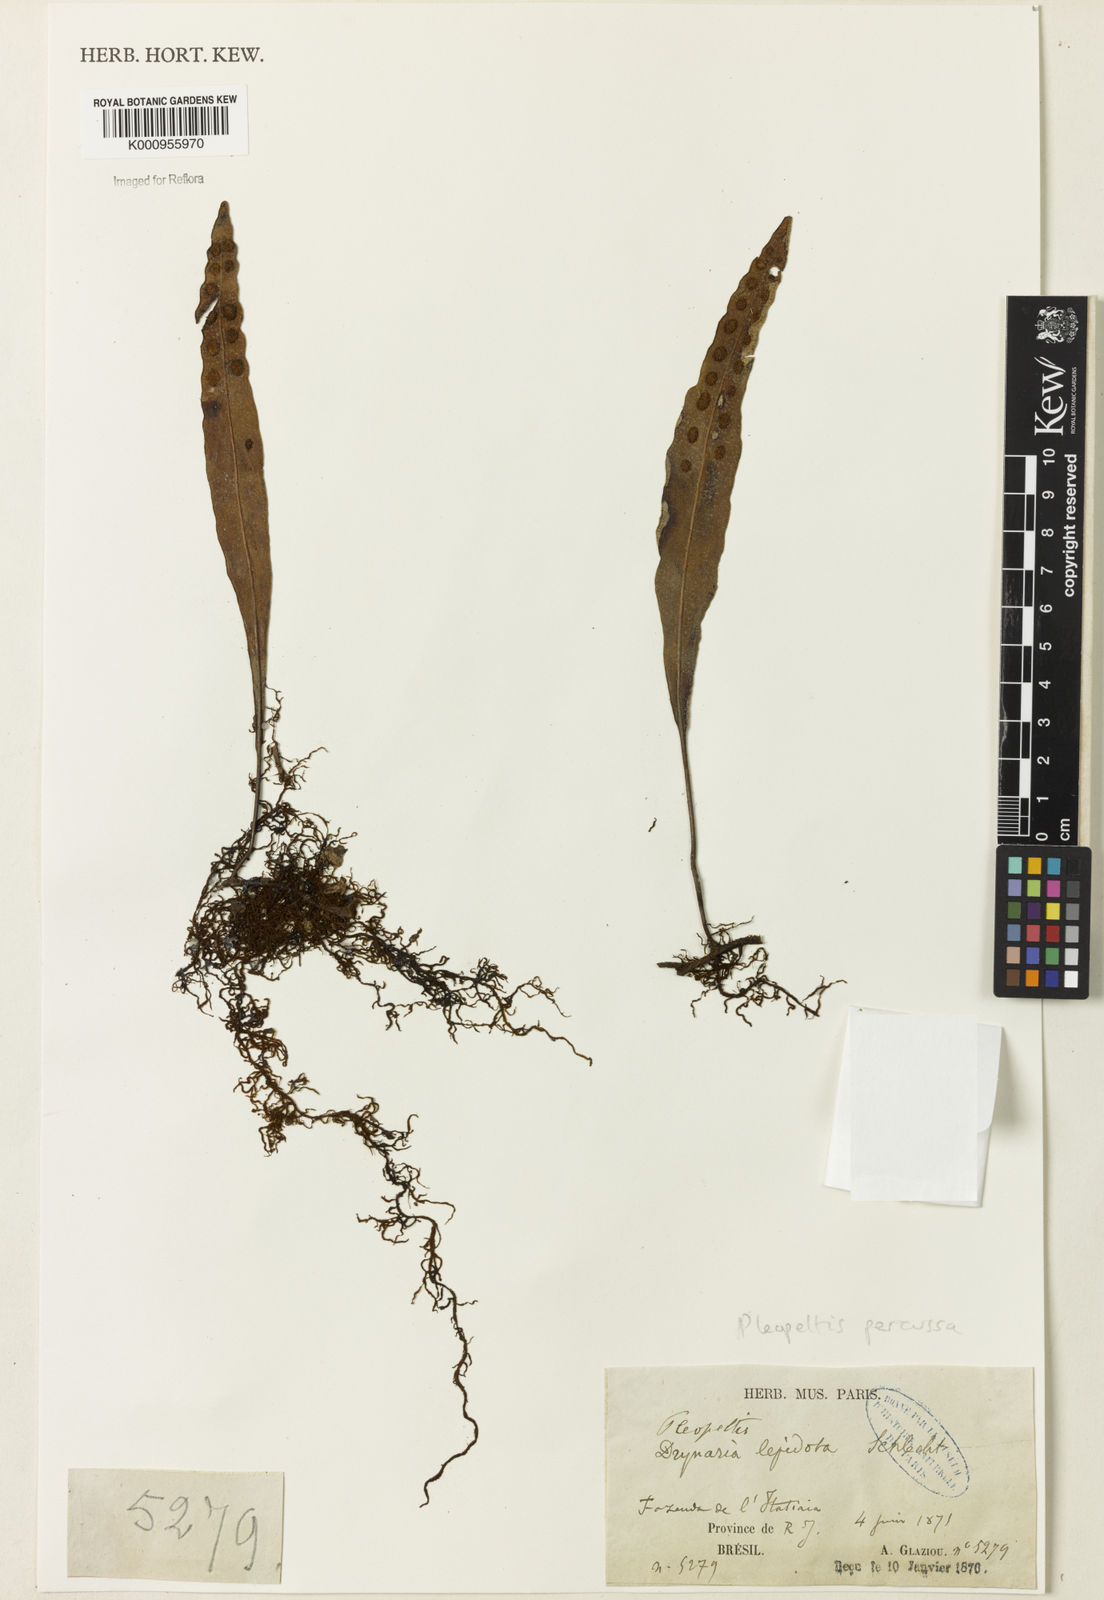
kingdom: Plantae
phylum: Tracheophyta
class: Polypodiopsida
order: Polypodiales
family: Polypodiaceae
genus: Pleopeltis
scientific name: Pleopeltis
